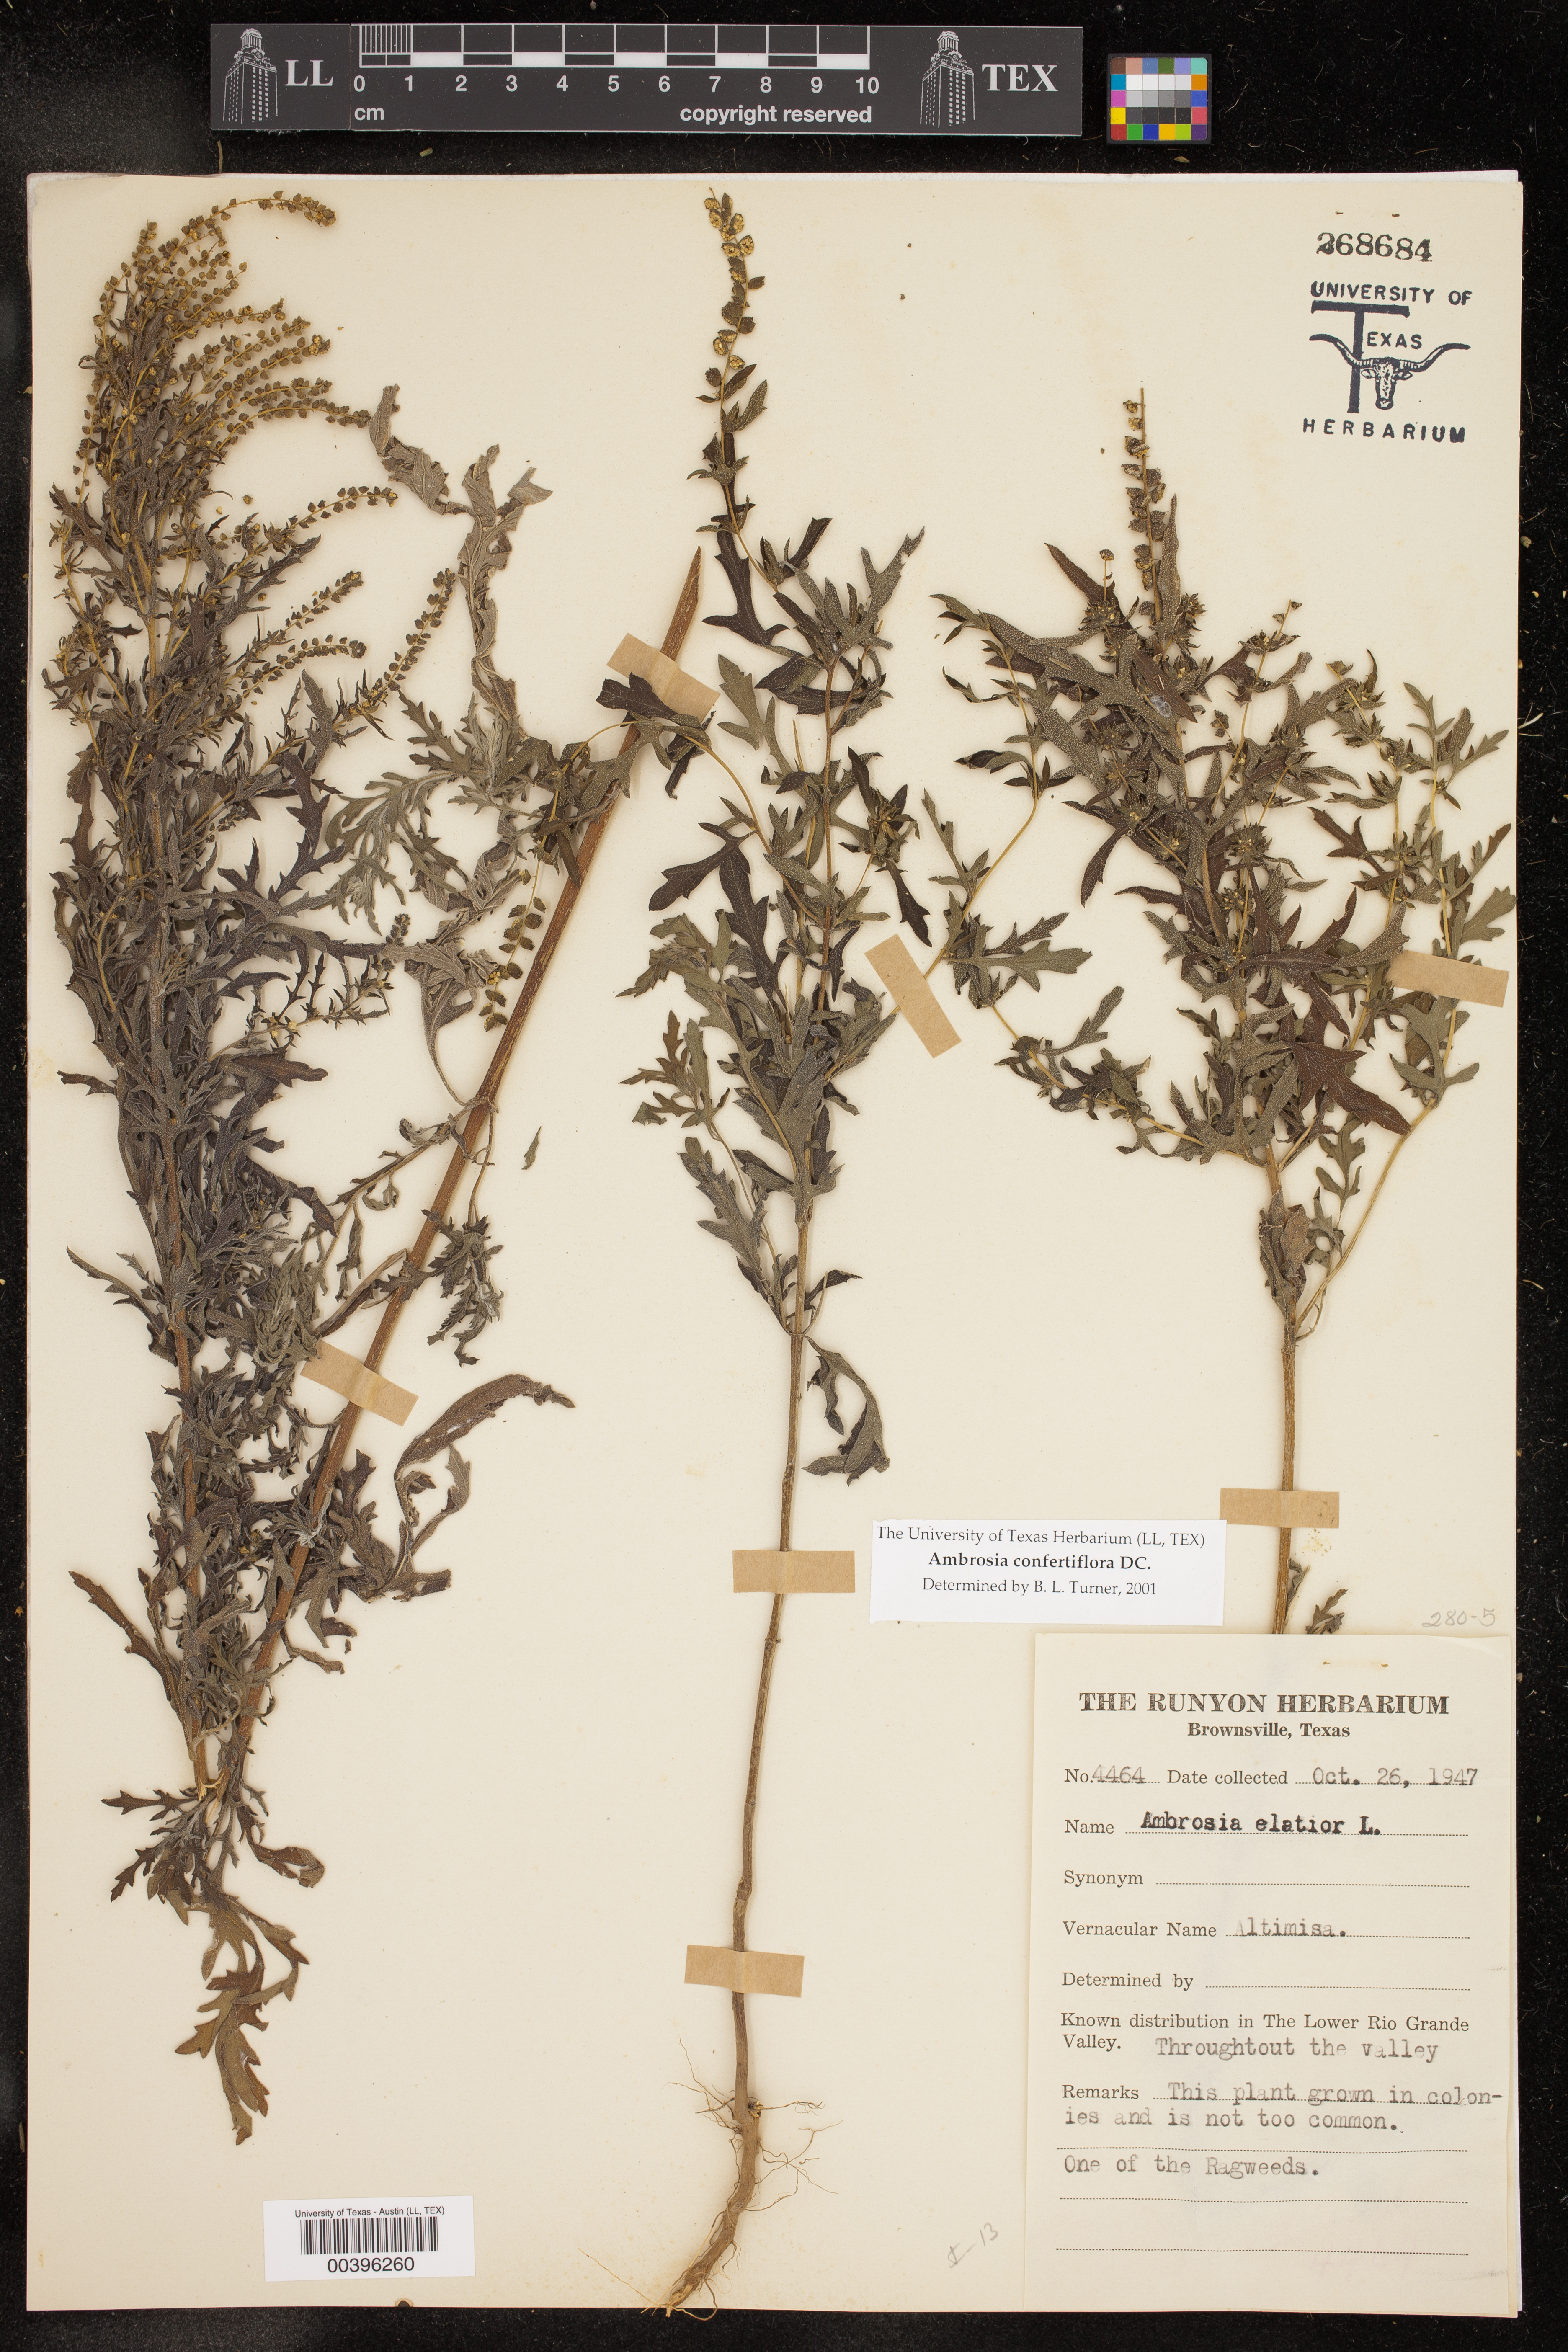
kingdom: Plantae
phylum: Tracheophyta
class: Magnoliopsida
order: Asterales
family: Asteraceae
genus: Ambrosia
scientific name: Ambrosia confertiflora
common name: Bur ragweed
